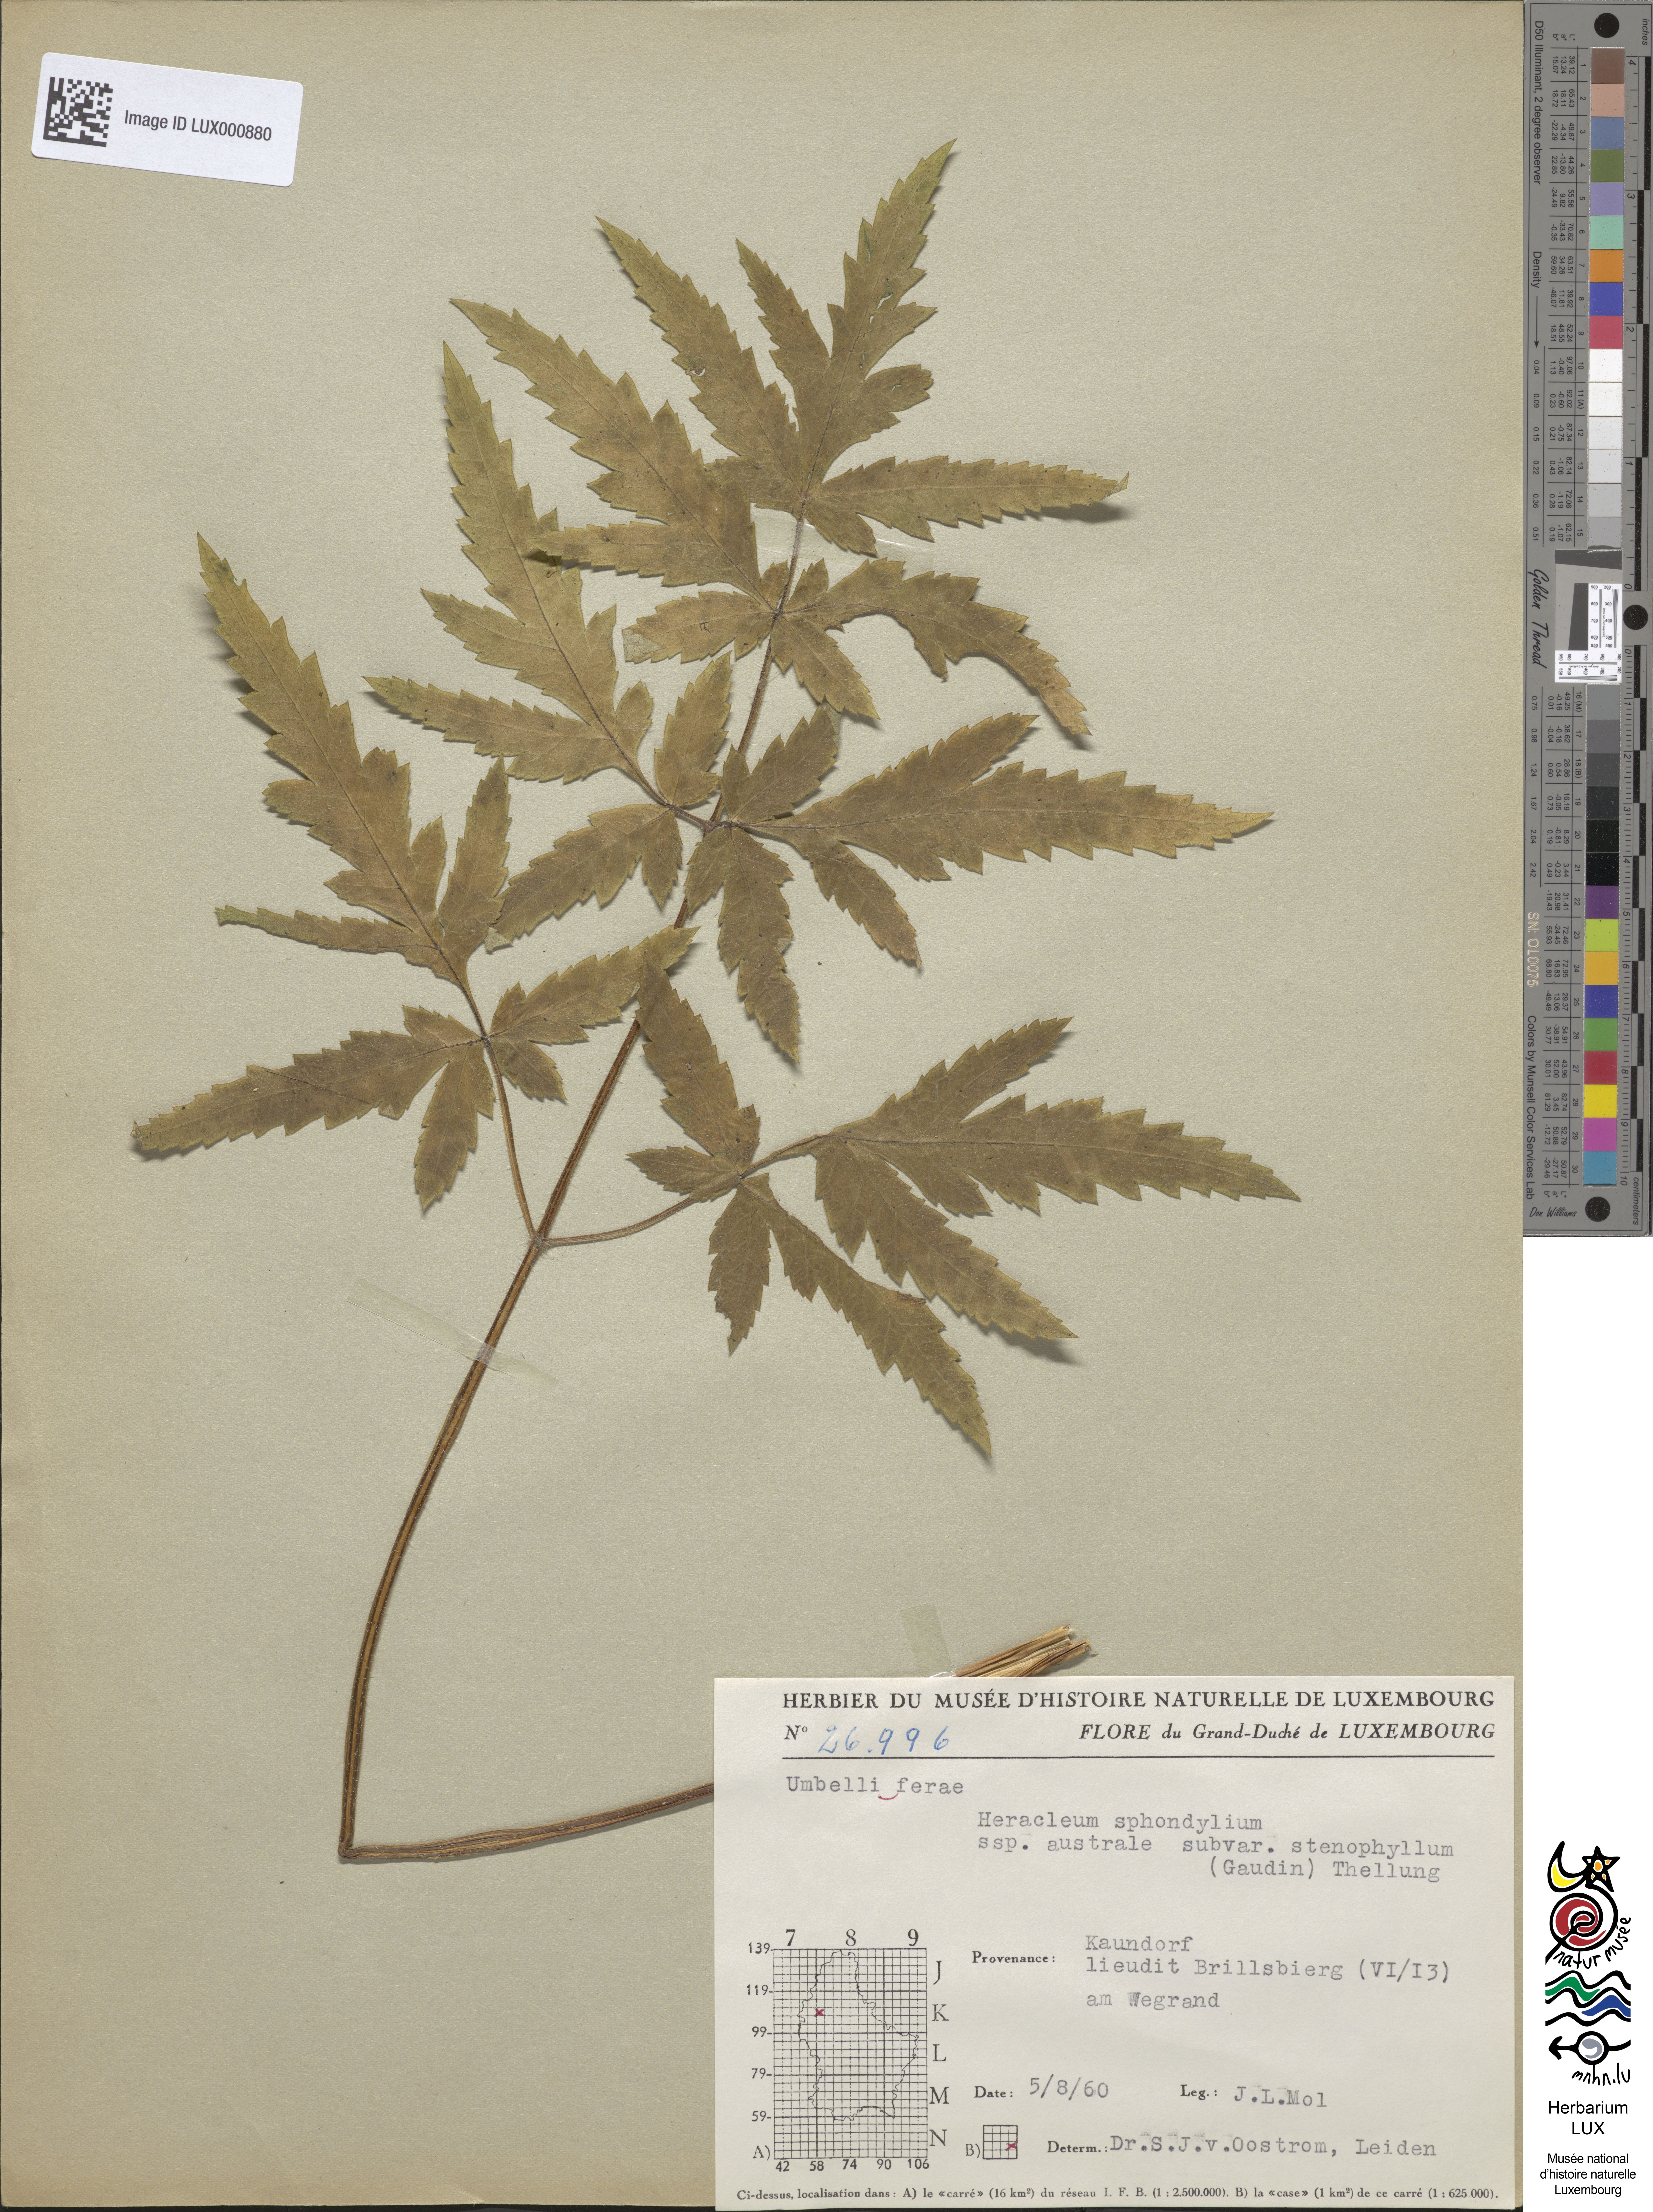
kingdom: Plantae
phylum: Tracheophyta
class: Magnoliopsida
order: Apiales
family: Apiaceae
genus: Heracleum
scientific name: Heracleum sphondylium
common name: Hogweed
